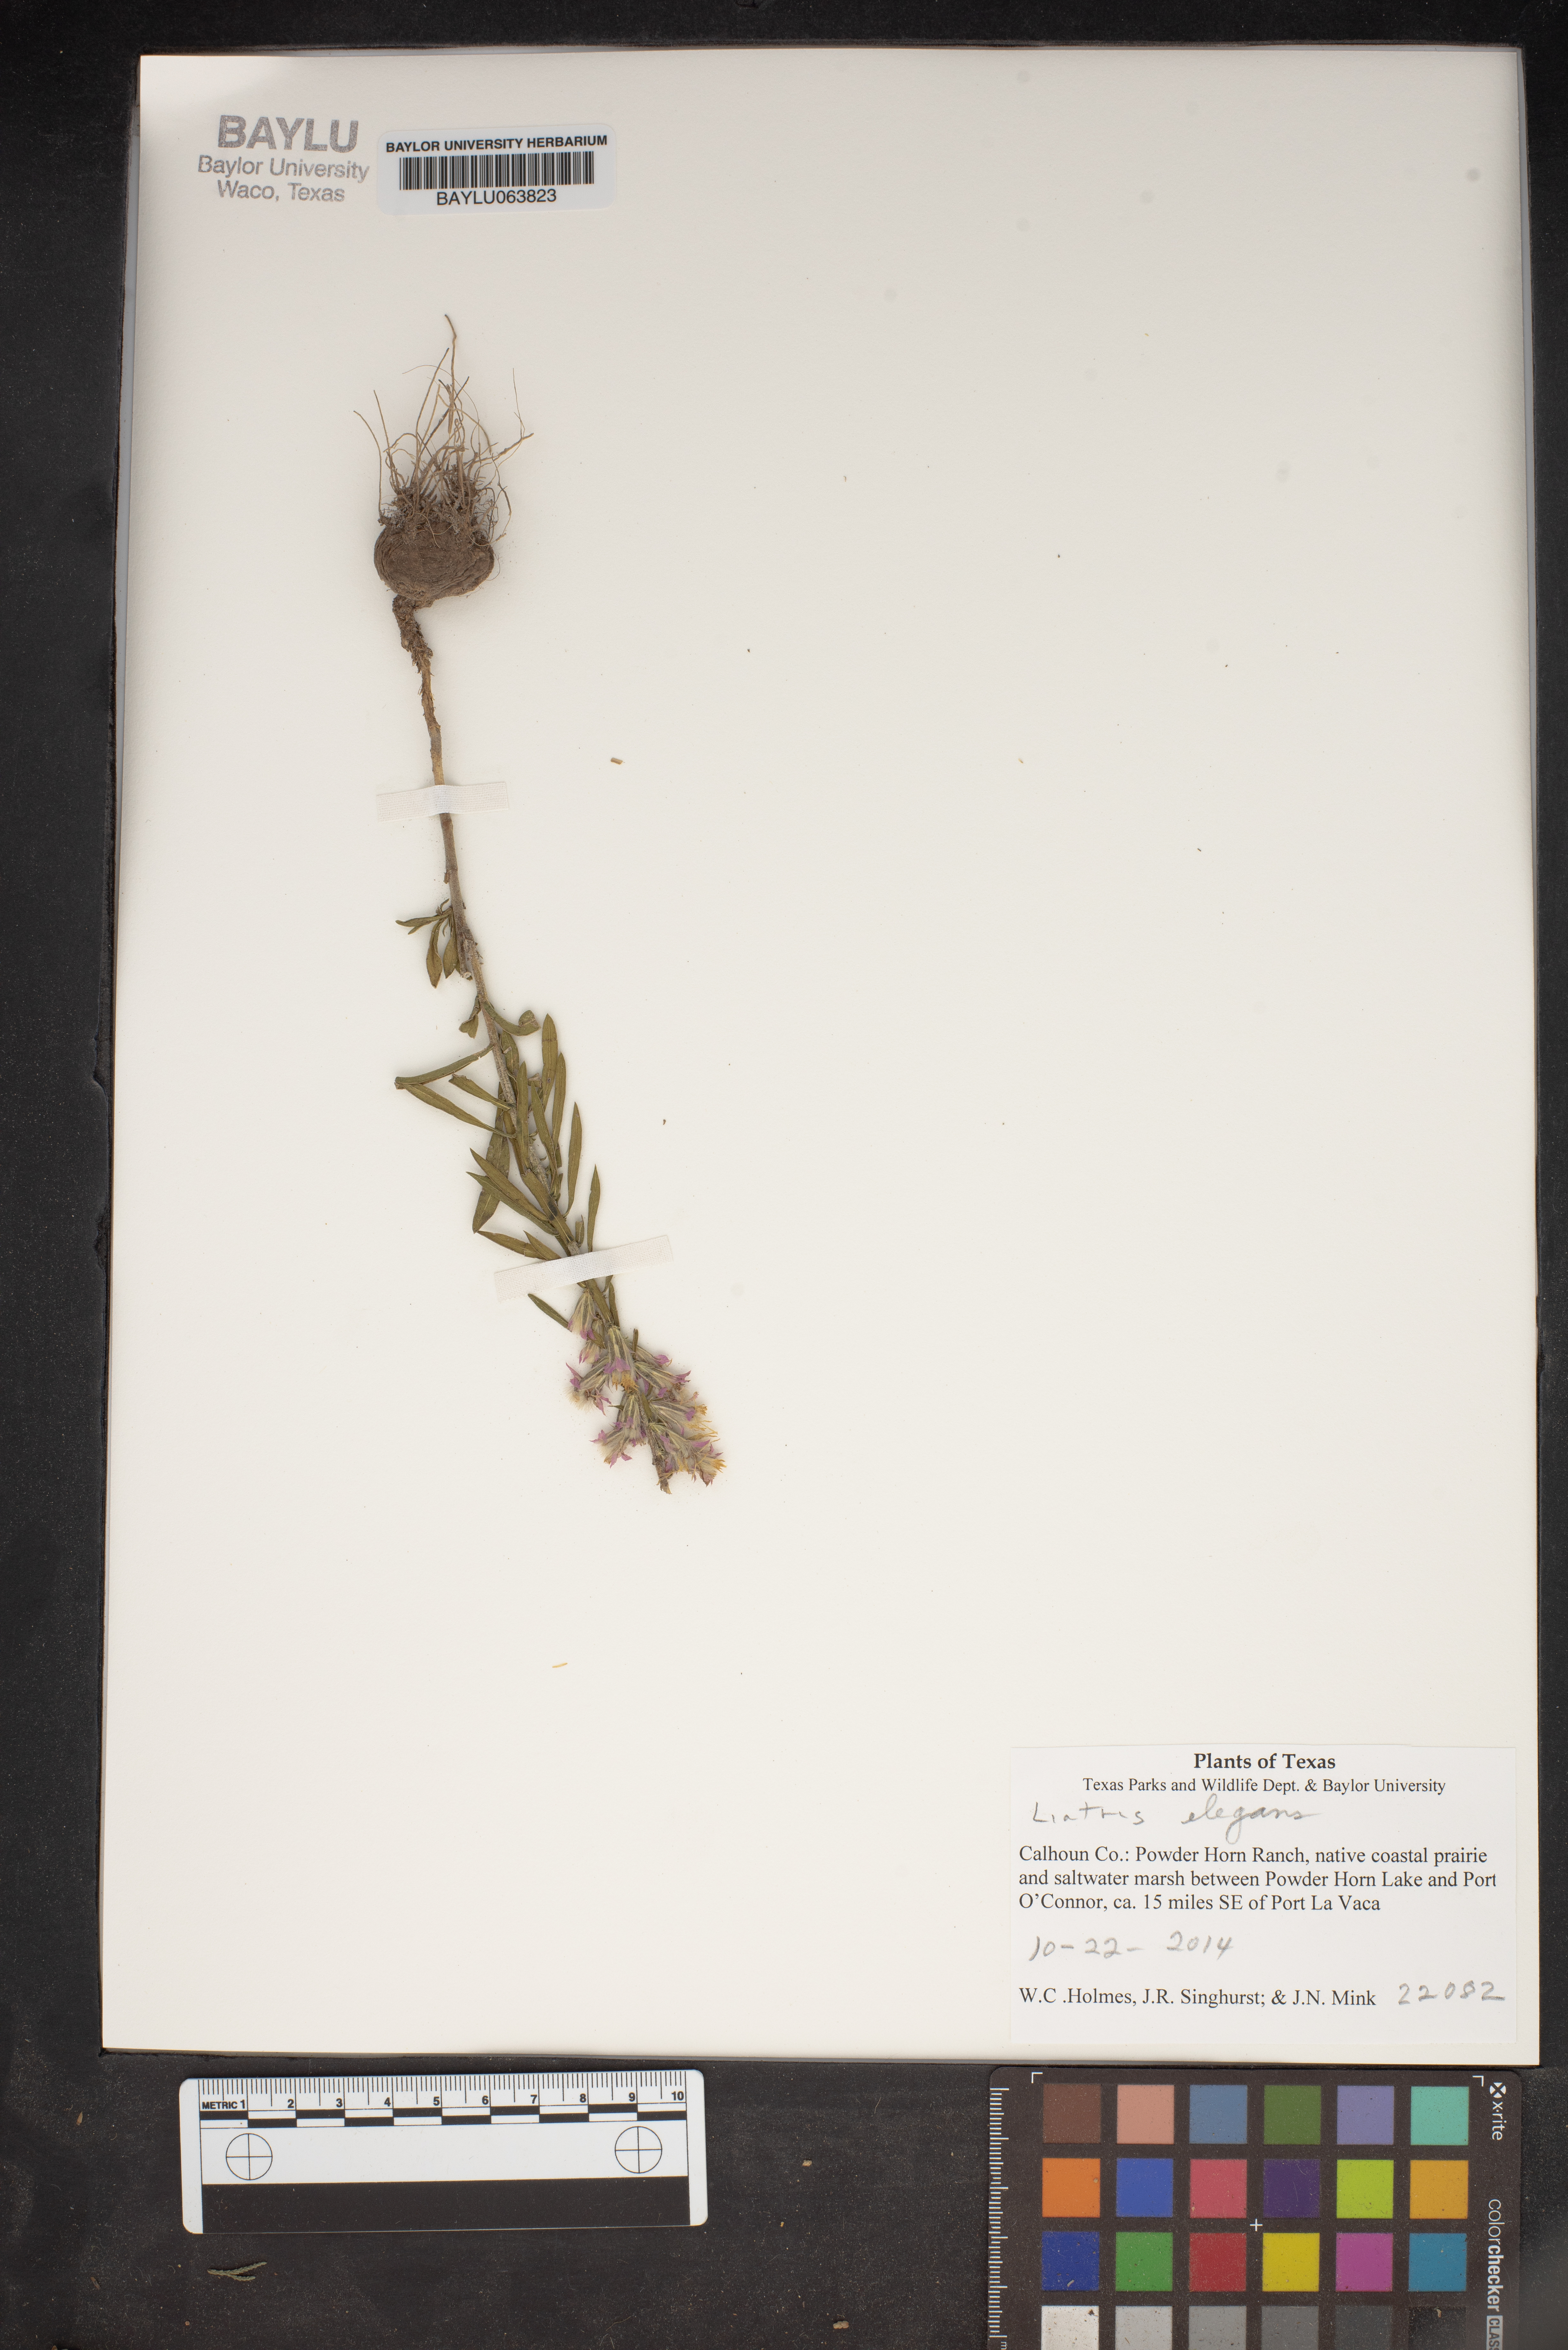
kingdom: Plantae
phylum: Tracheophyta
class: Magnoliopsida
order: Asterales
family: Asteraceae
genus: Liatris
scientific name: Liatris elegans
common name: Pinkscale gayfeather
